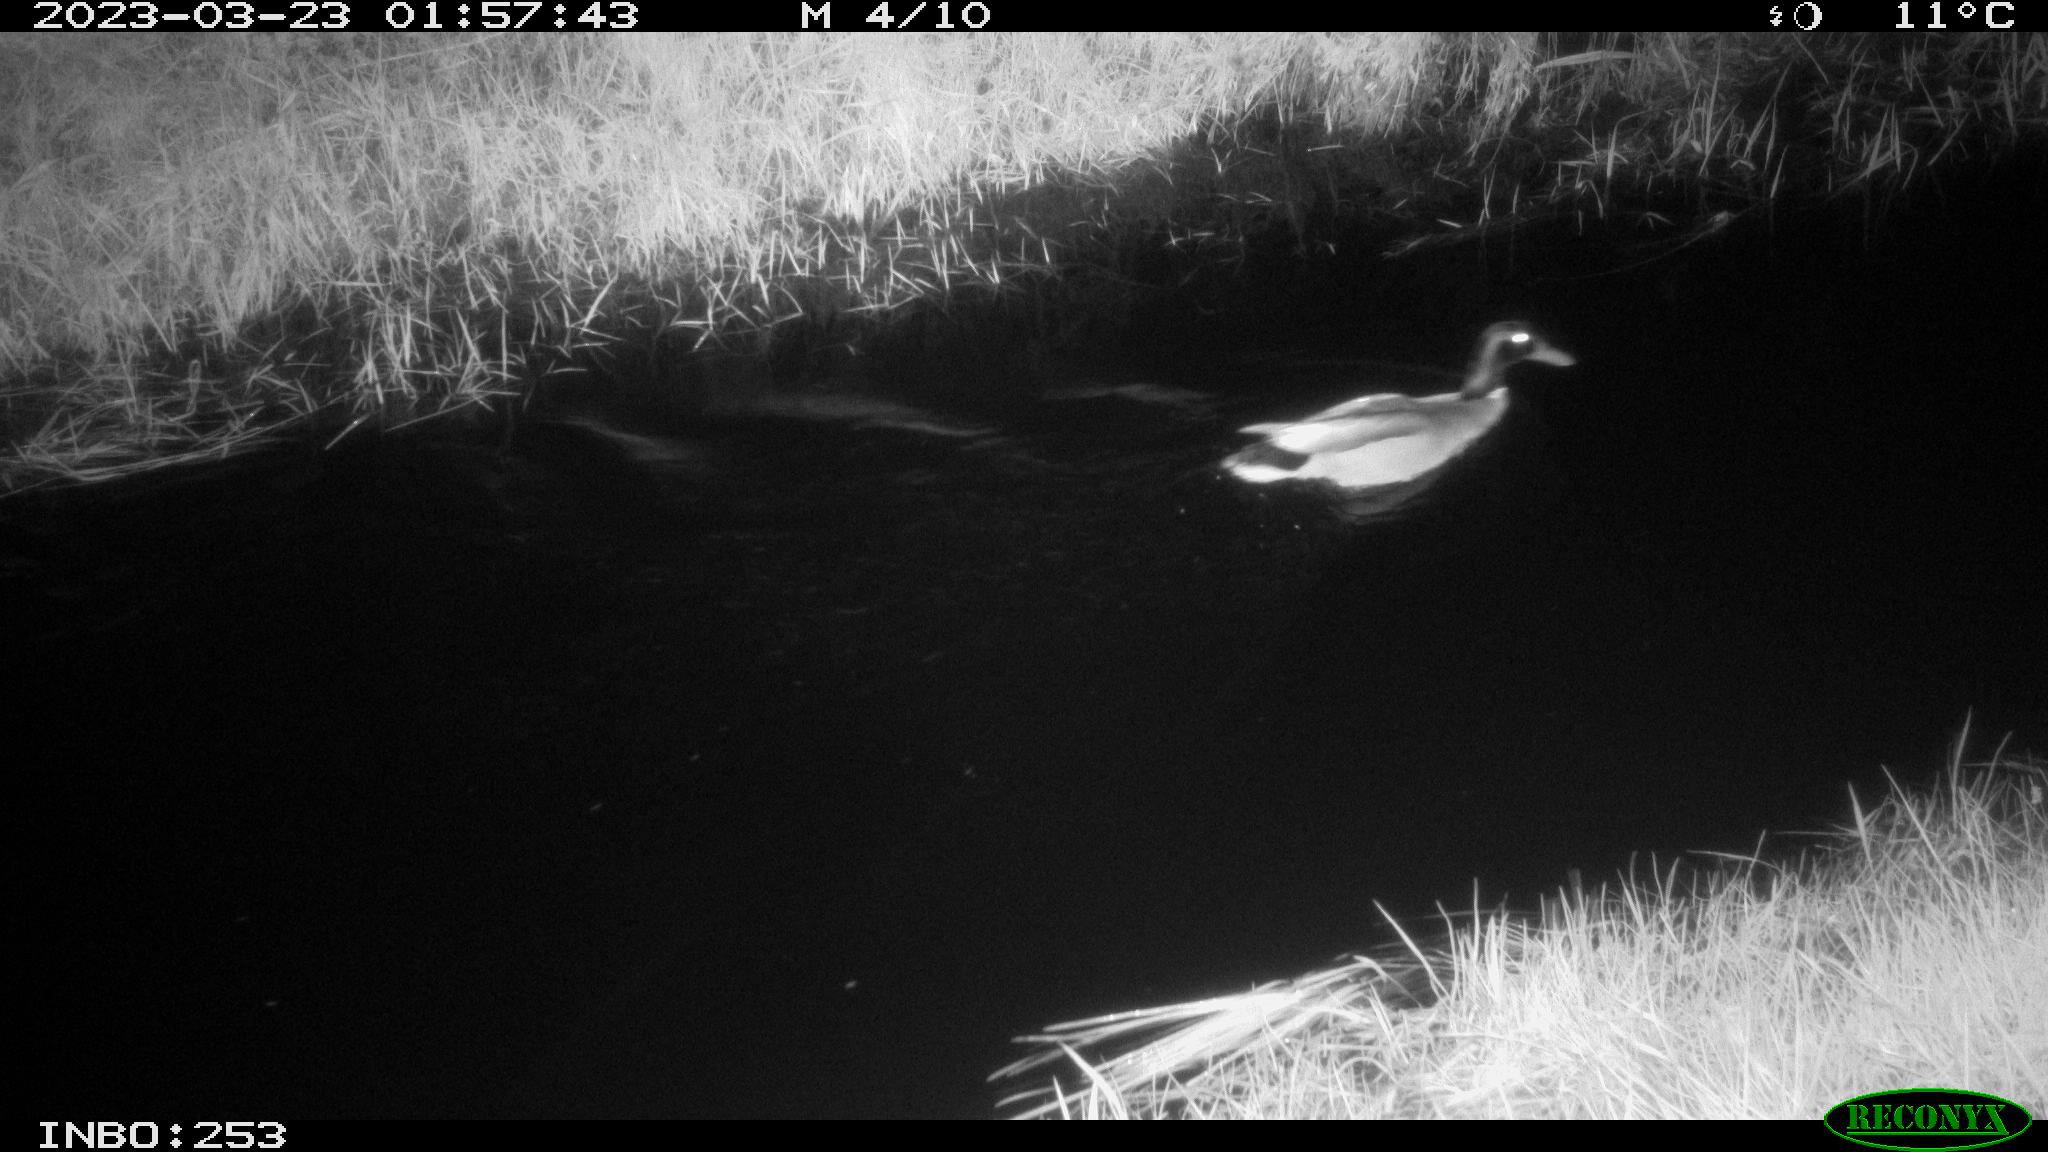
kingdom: Animalia
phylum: Chordata
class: Aves
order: Anseriformes
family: Anatidae
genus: Anas
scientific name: Anas
